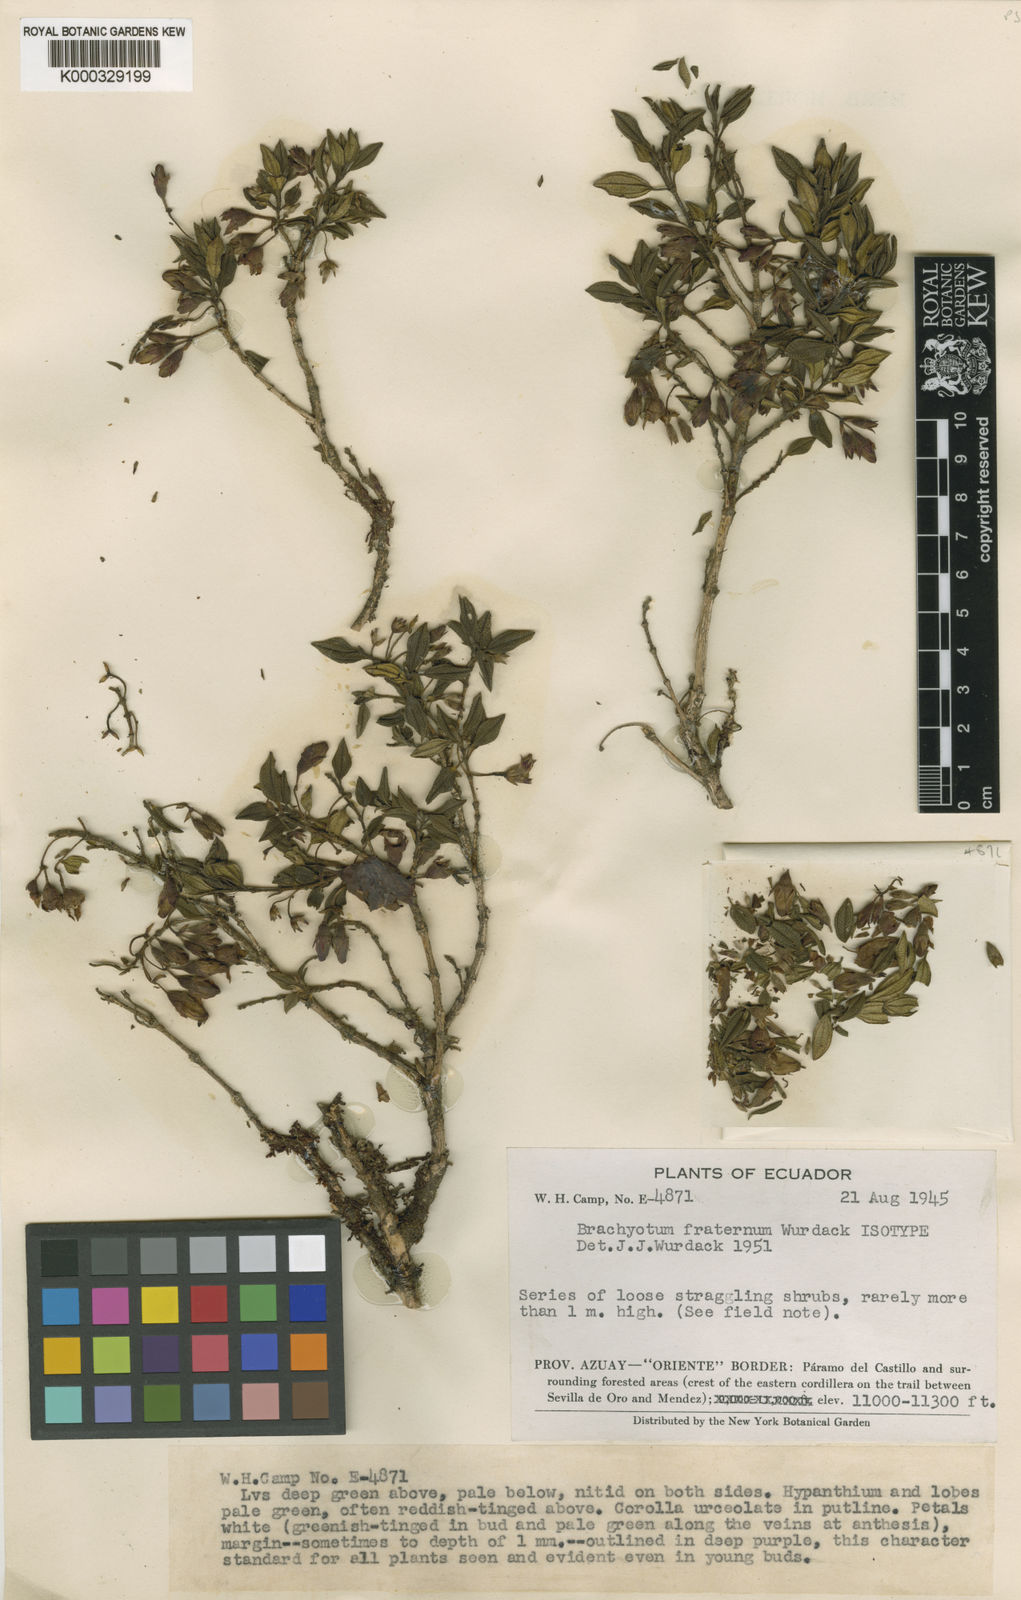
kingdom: Plantae
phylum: Tracheophyta
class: Magnoliopsida
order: Myrtales
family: Melastomataceae
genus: Brachyotum
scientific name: Brachyotum fraternum
